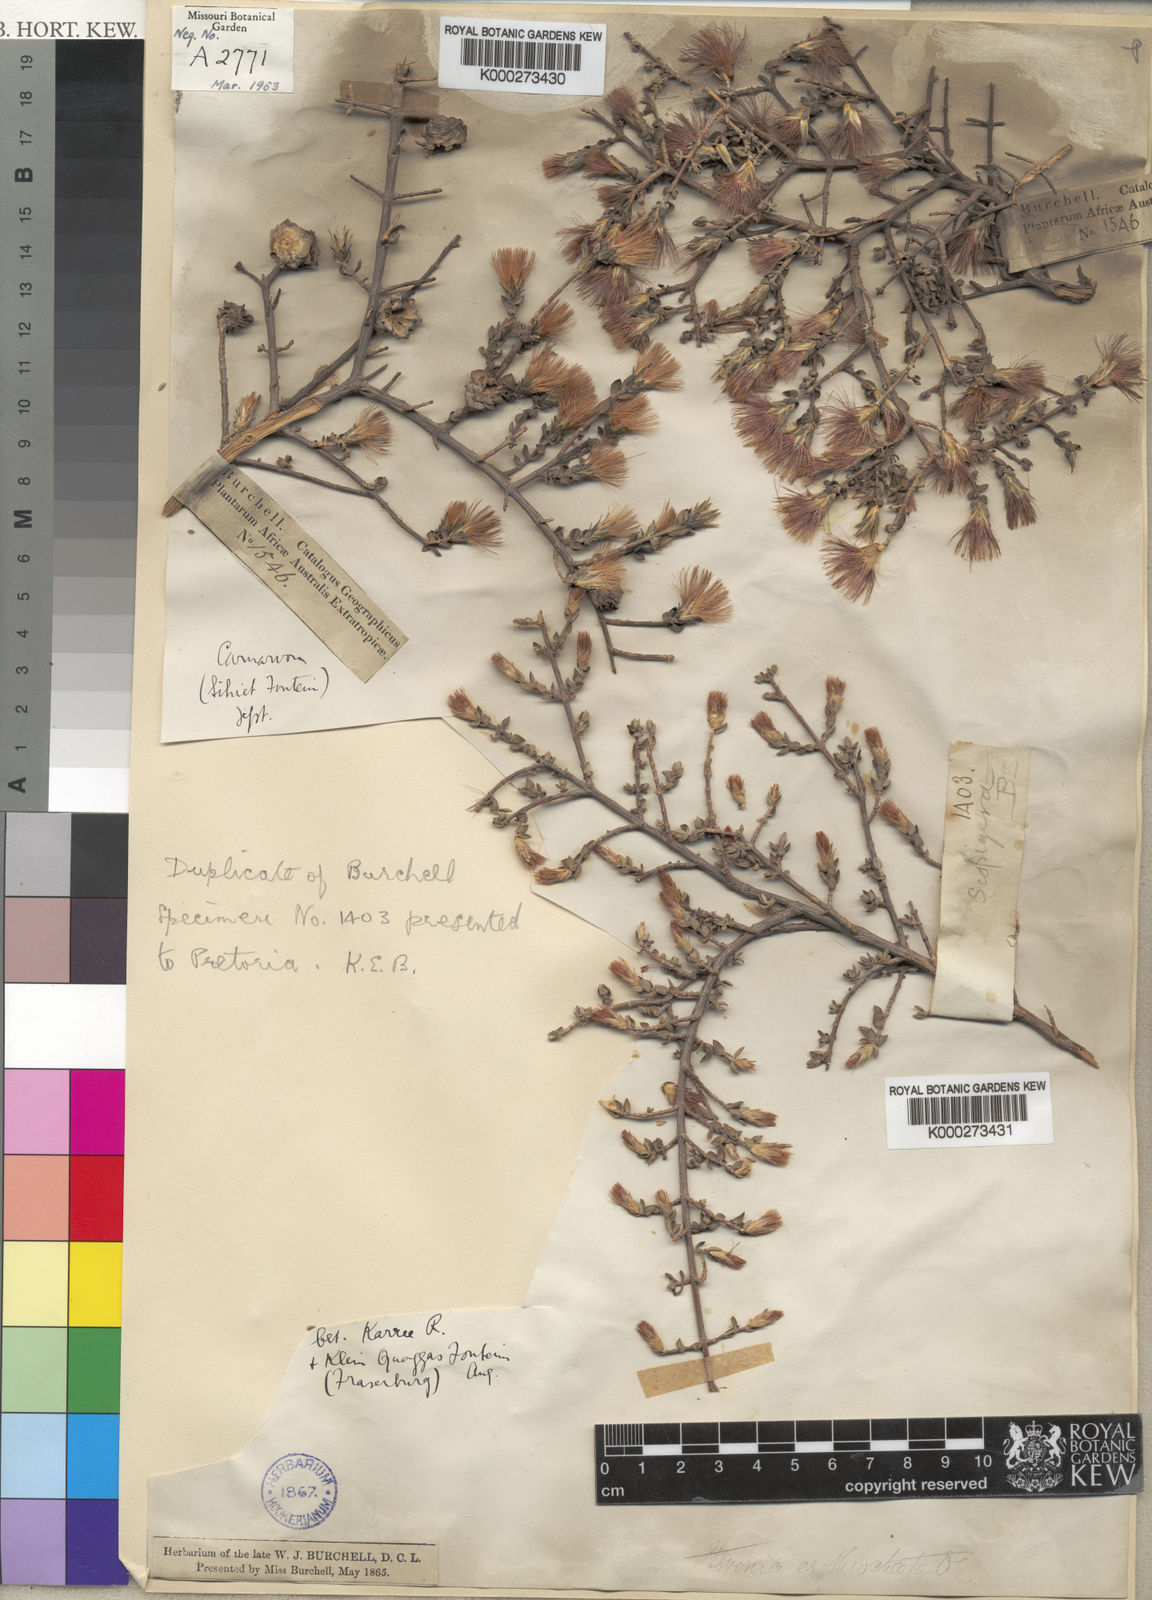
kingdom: Plantae
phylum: Tracheophyta
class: Magnoliopsida
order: Asterales
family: Asteraceae
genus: Pteronia
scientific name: Pteronia erythrochaeta
